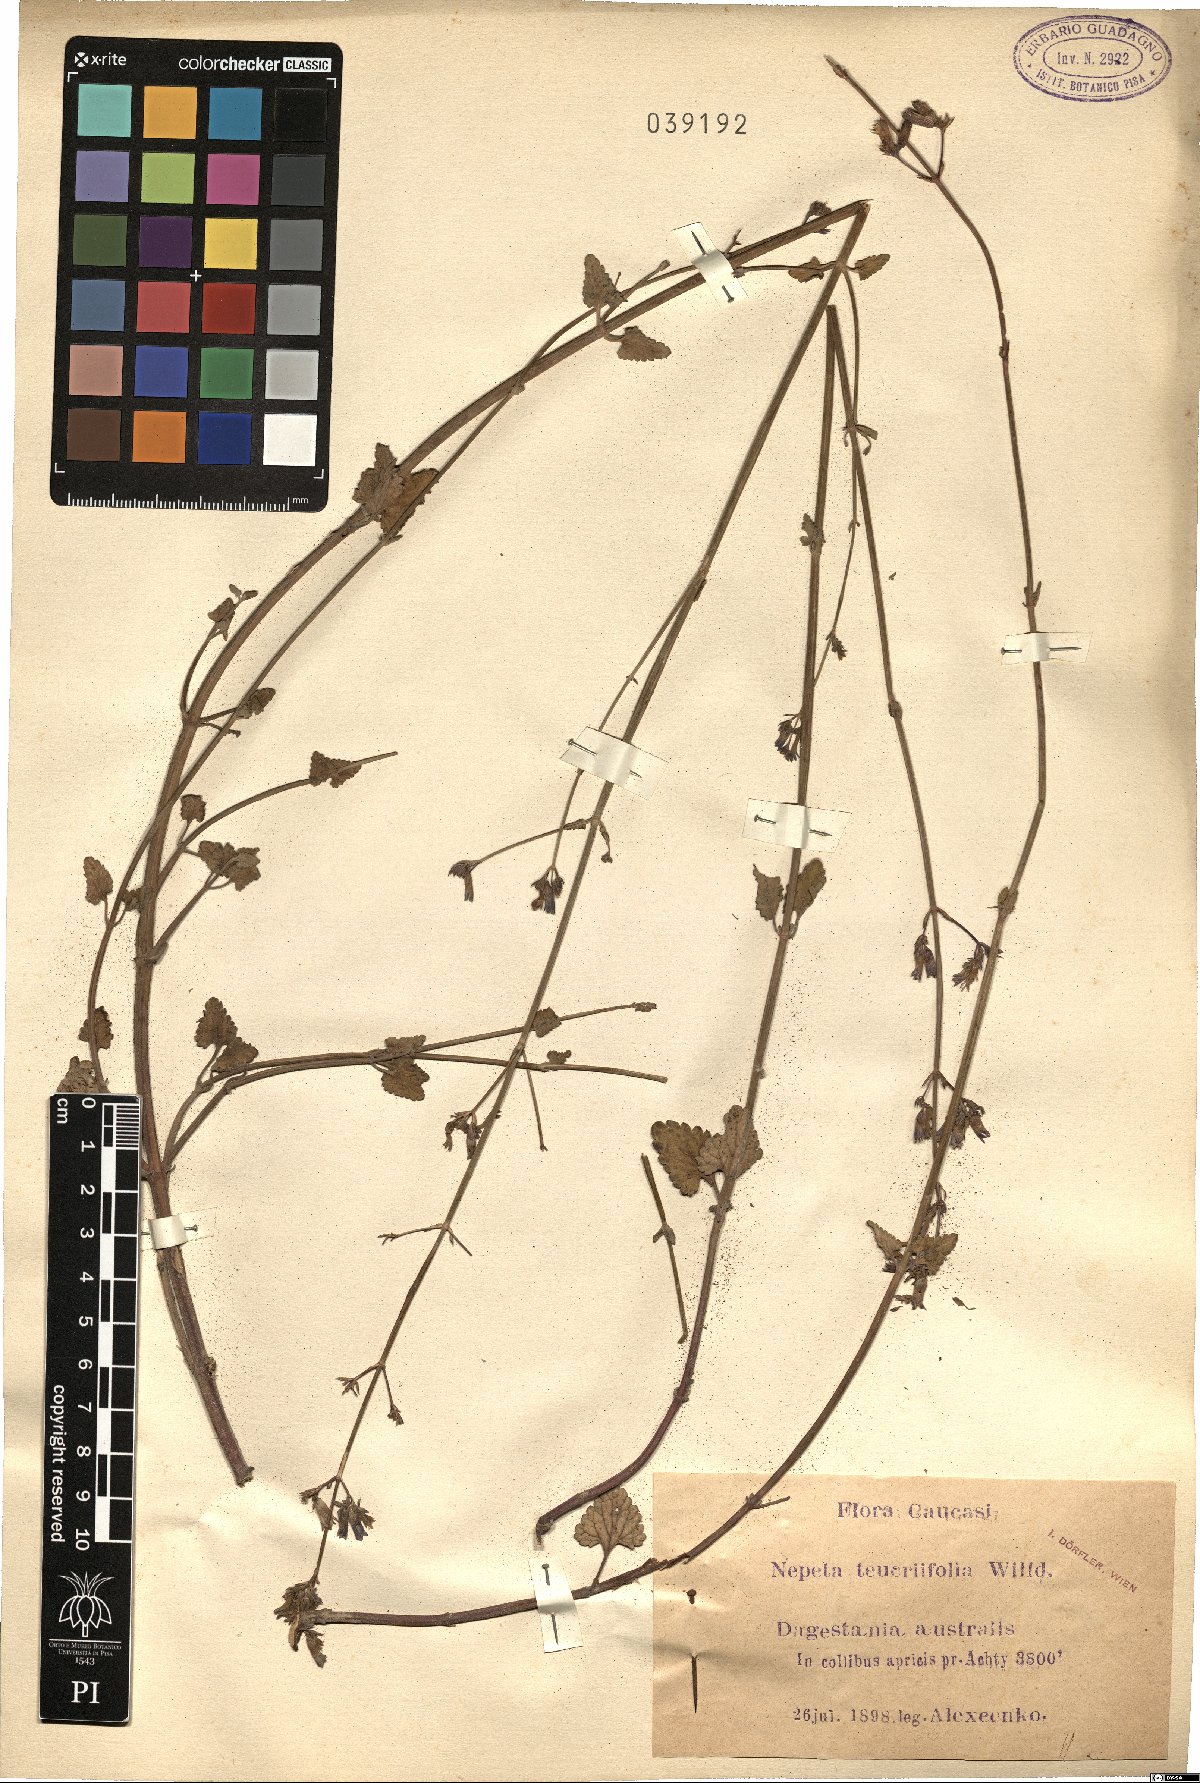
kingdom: Plantae
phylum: Tracheophyta
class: Magnoliopsida
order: Lamiales
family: Lamiaceae
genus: Nepeta
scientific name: Nepeta teucriifolia
